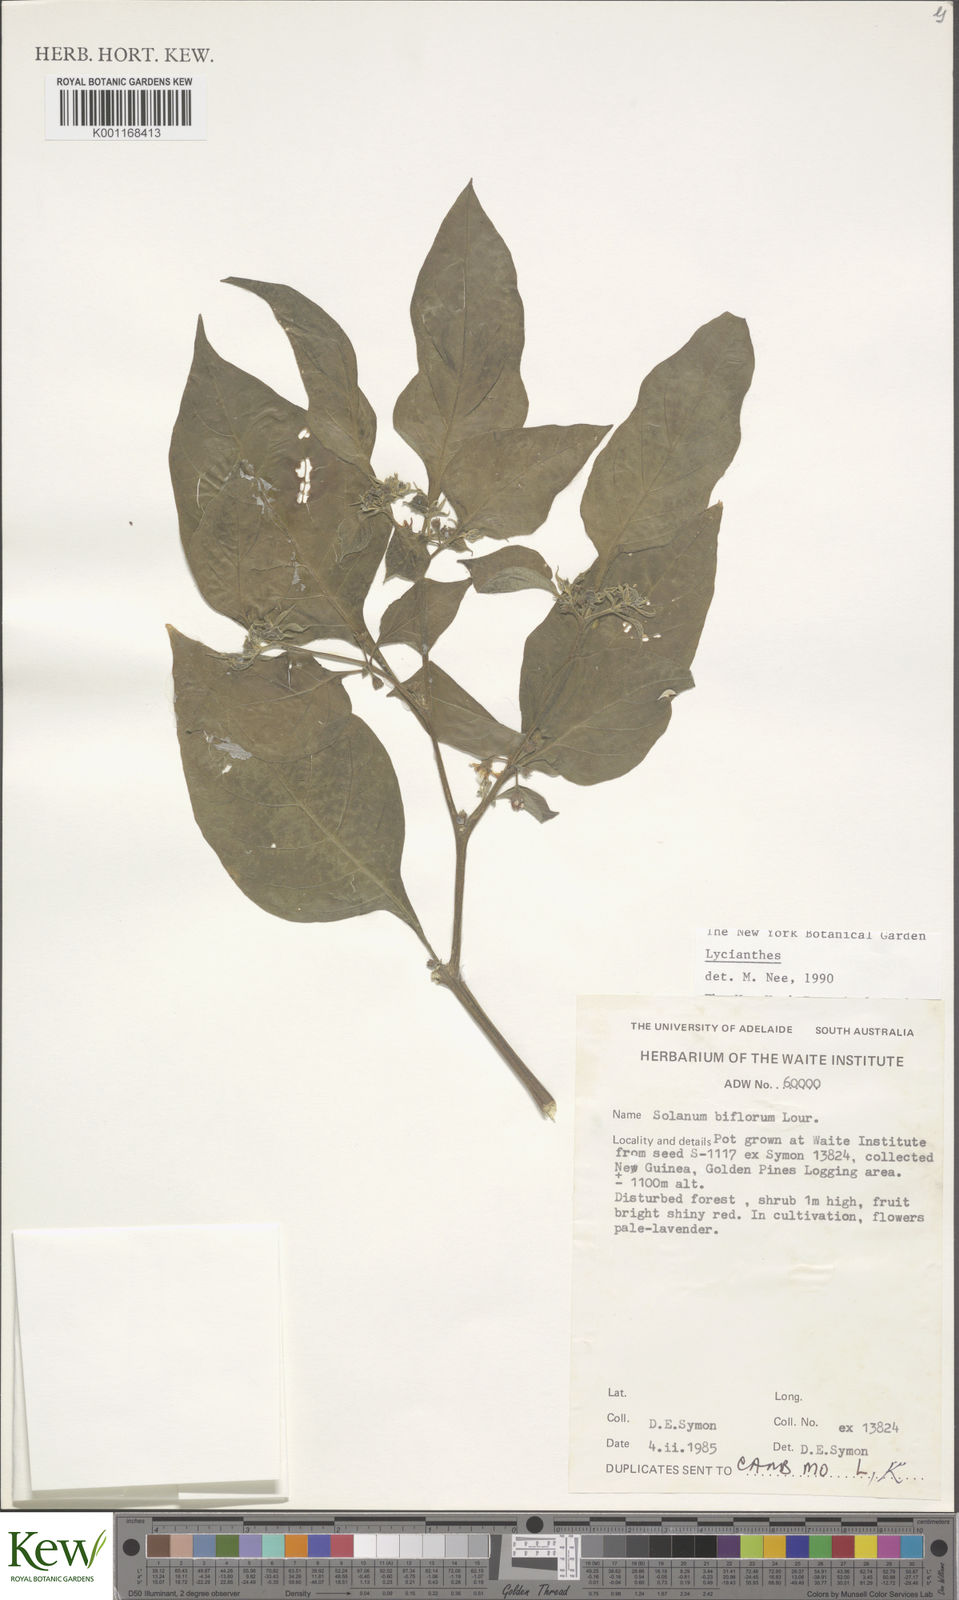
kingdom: Plantae
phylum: Tracheophyta
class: Magnoliopsida
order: Solanales
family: Solanaceae
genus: Lycianthes
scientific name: Lycianthes biflora
